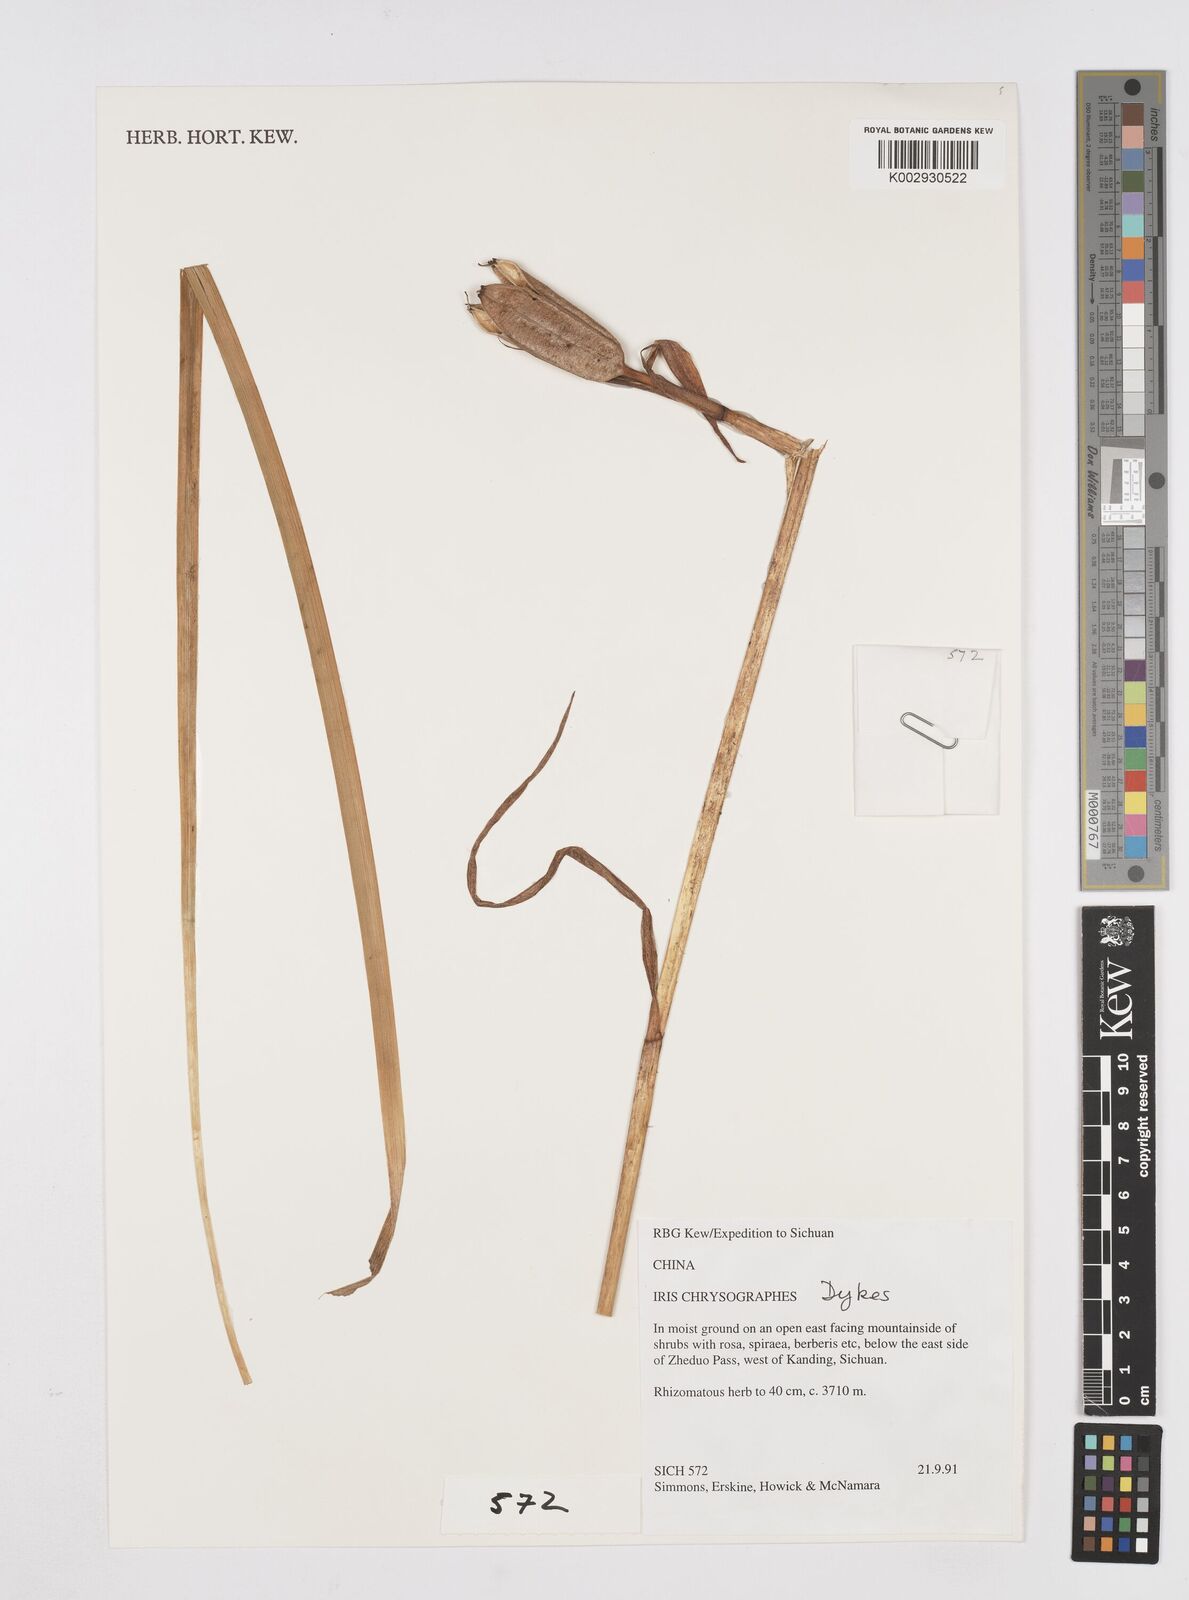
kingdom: Plantae
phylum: Tracheophyta
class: Liliopsida
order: Asparagales
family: Iridaceae
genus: Iris
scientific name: Iris chrysographes
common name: Gold-vein iris
